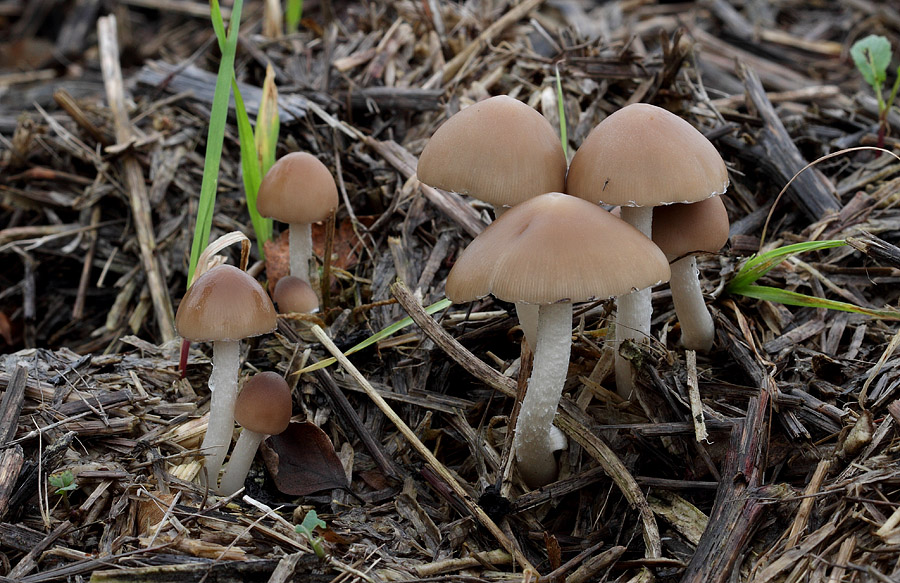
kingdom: Fungi
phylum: Basidiomycota
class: Agaricomycetes
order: Agaricales
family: Psathyrellaceae
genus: Coprinopsis
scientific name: Coprinopsis marcescibilis
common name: ruderat-blækhat
